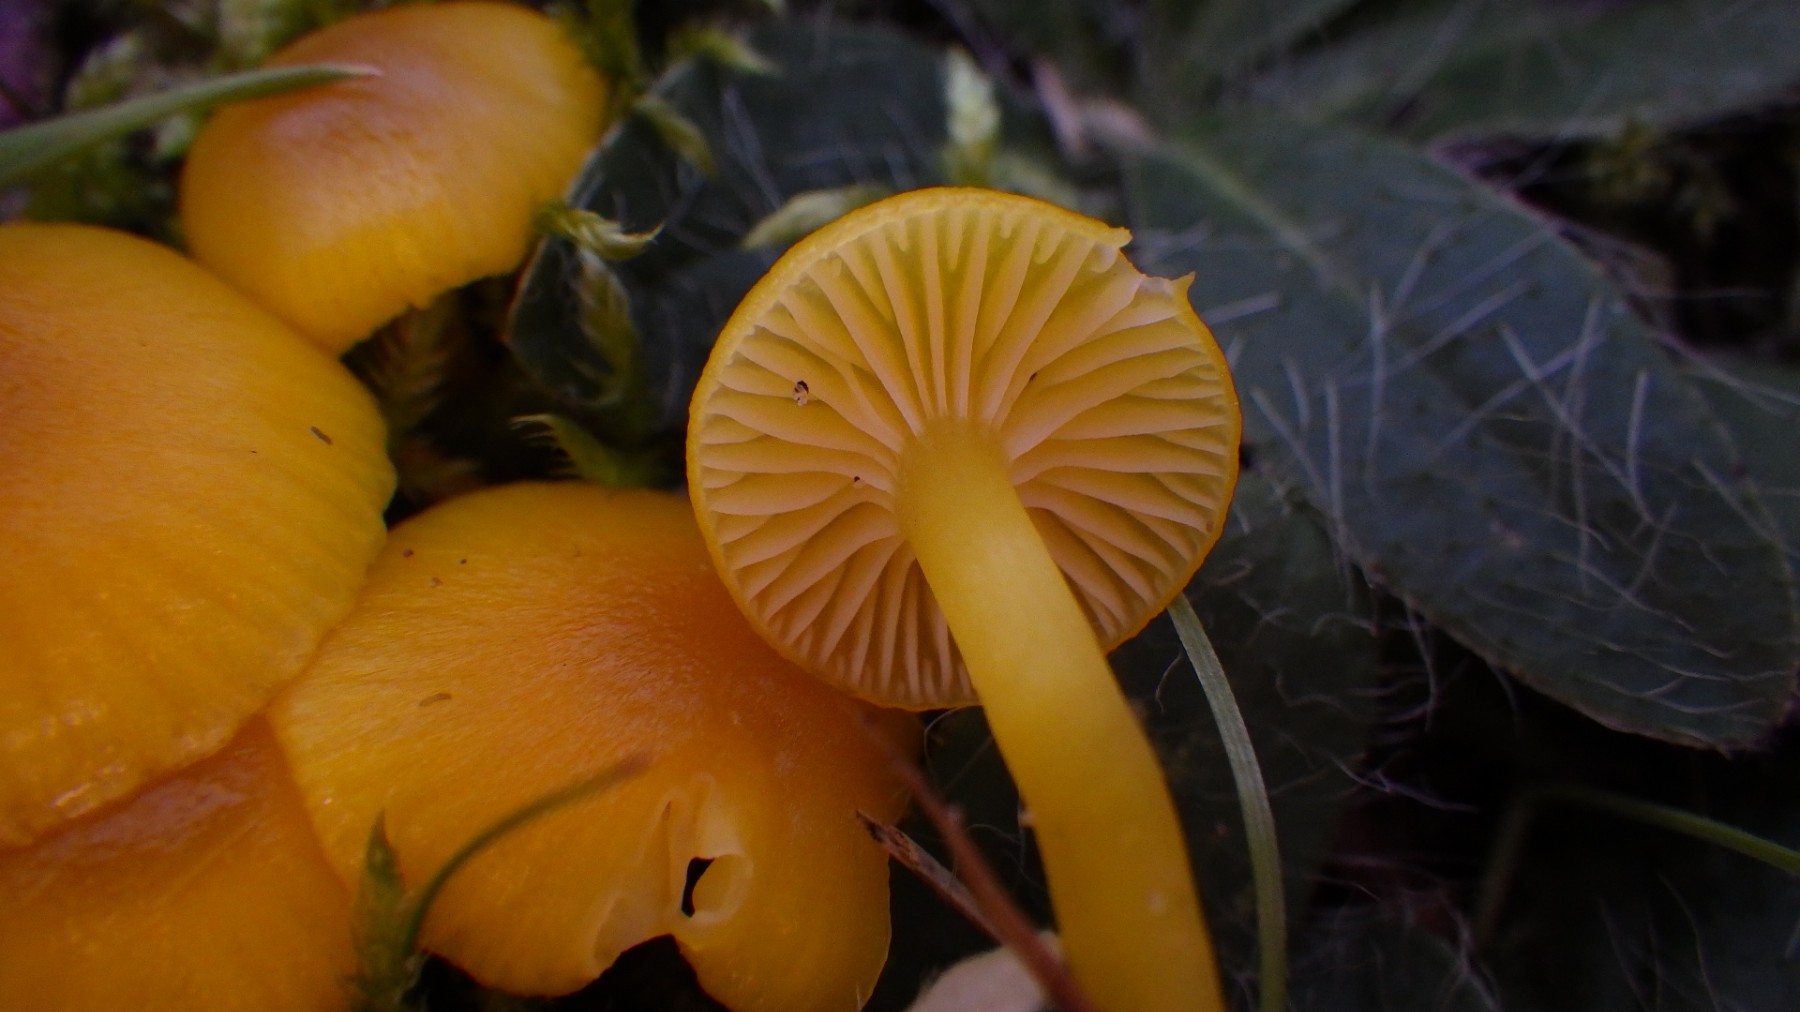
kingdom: Fungi
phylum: Basidiomycota
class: Agaricomycetes
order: Agaricales
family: Hygrophoraceae
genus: Hygrocybe
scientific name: Hygrocybe ceracea
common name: voksgul vokshat
